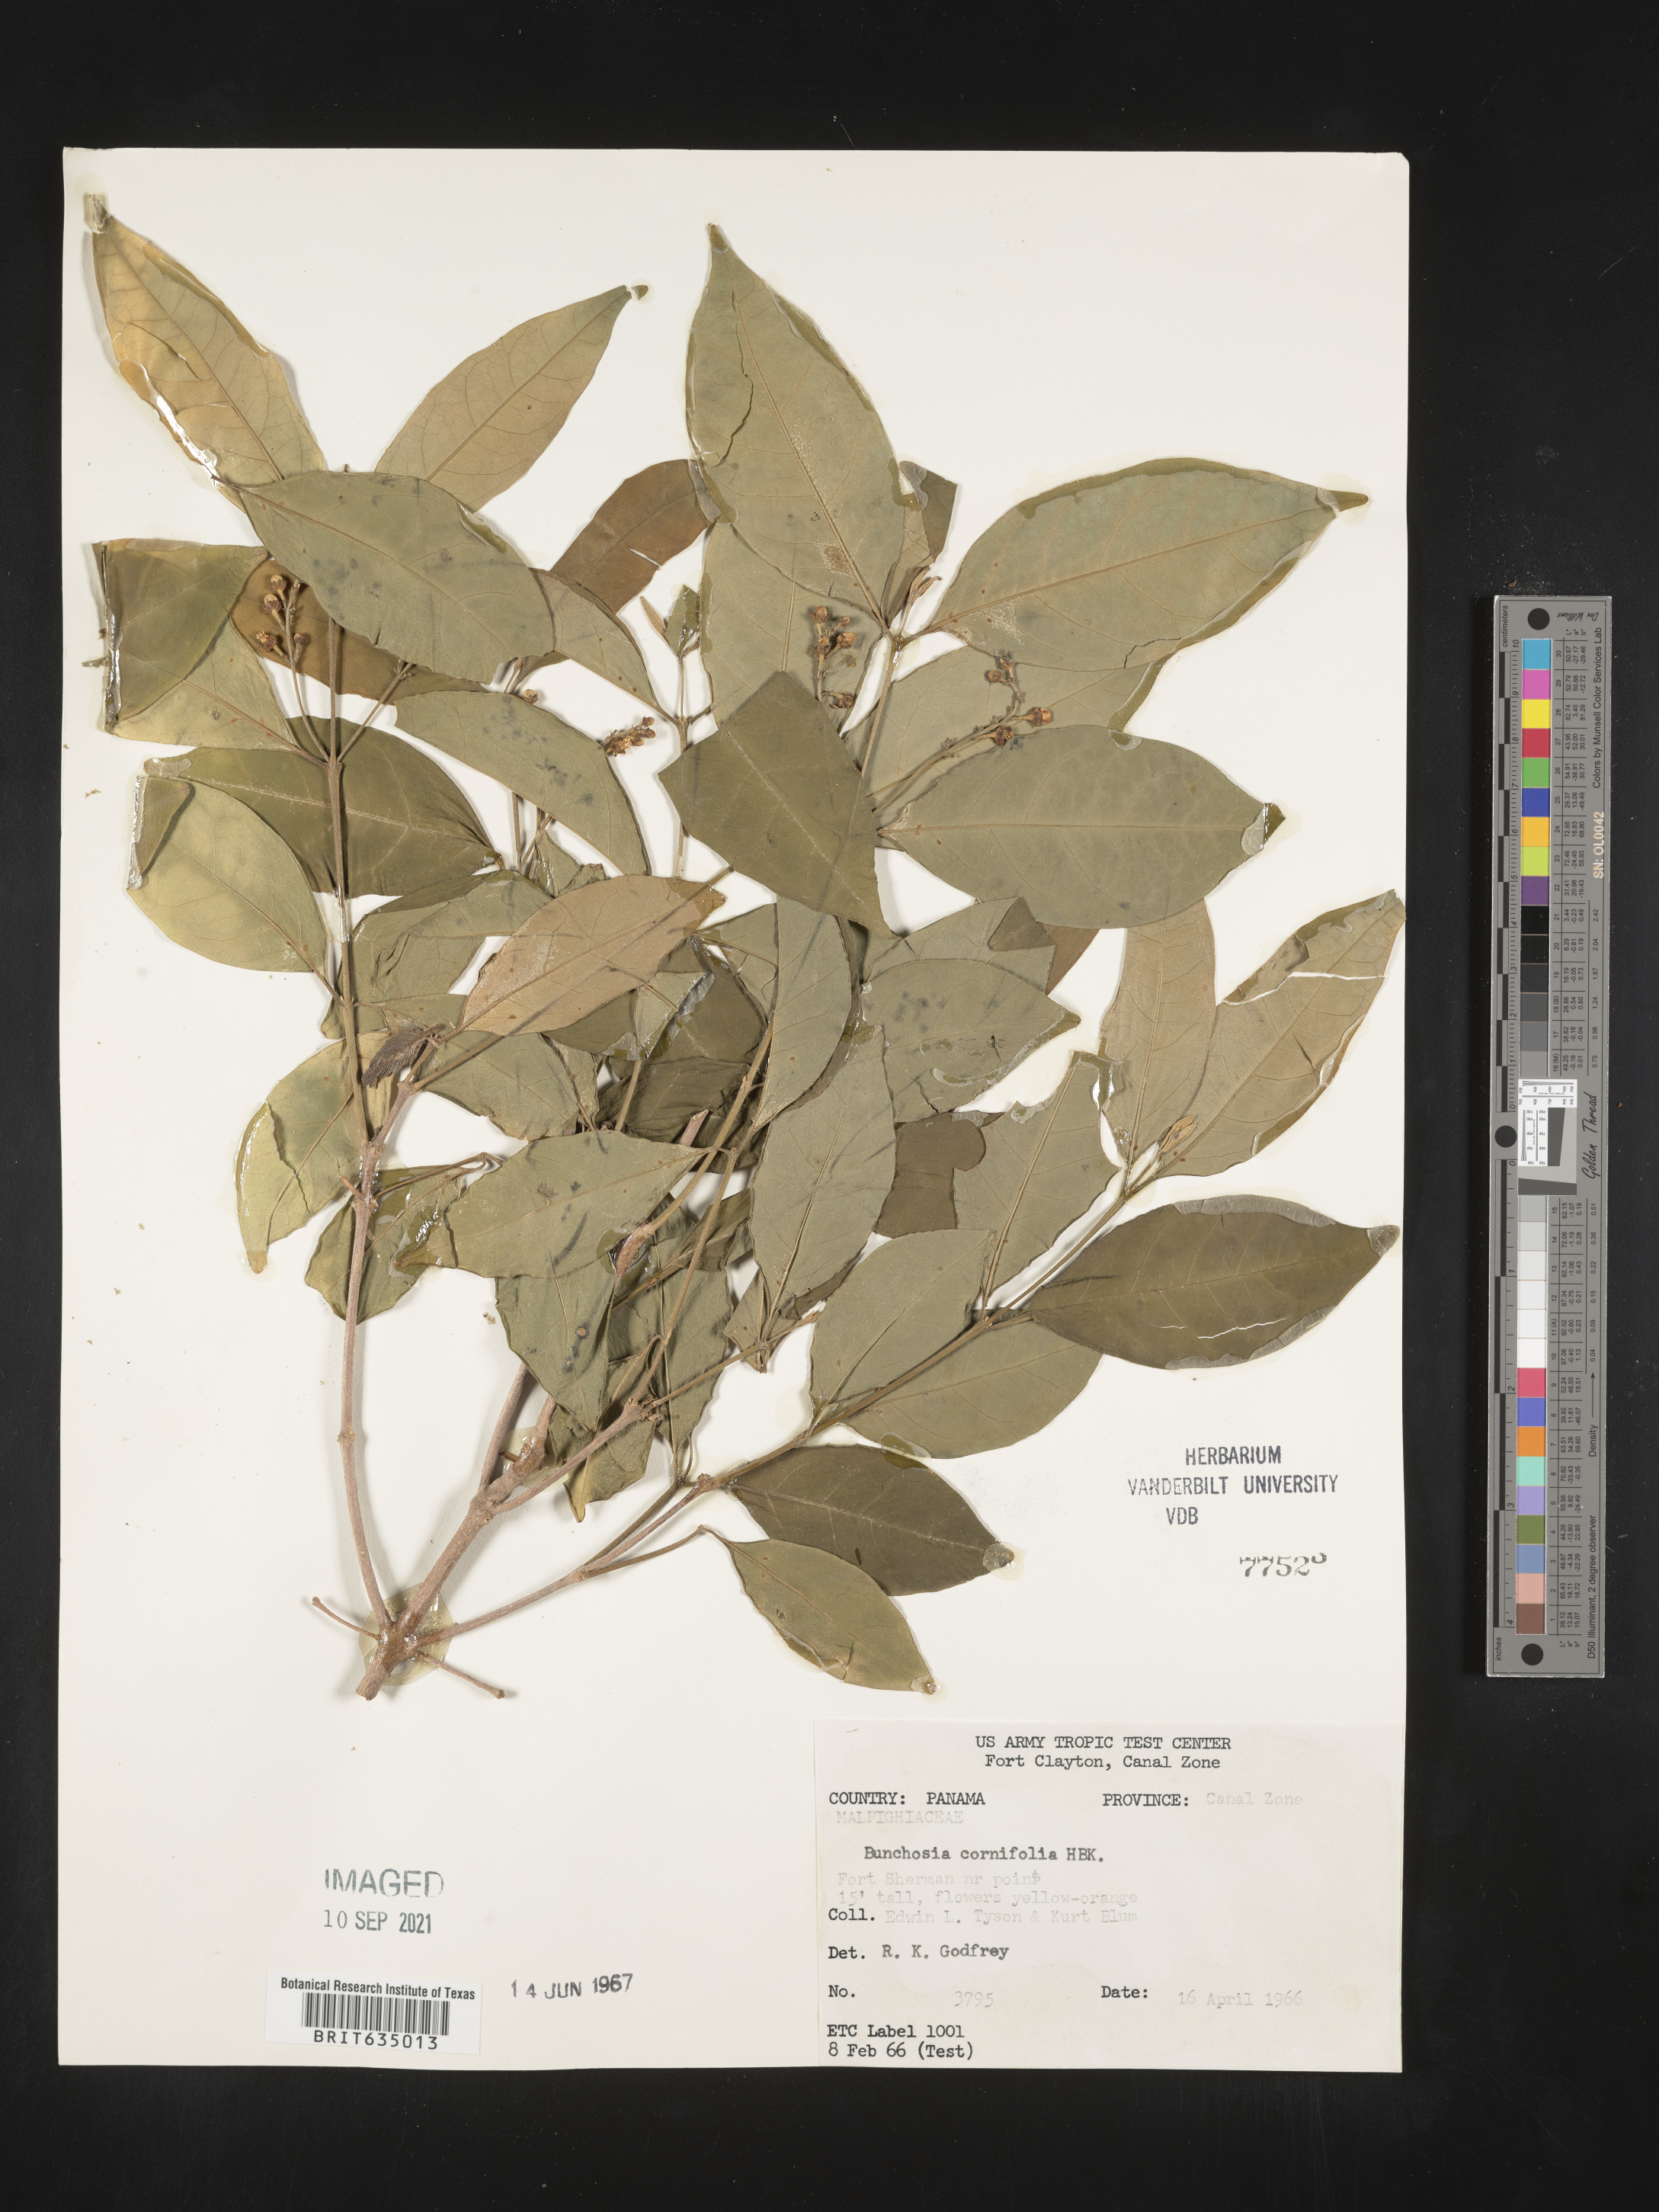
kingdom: Plantae
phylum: Tracheophyta
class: Magnoliopsida
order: Malpighiales
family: Malpighiaceae
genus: Bunchosia
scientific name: Bunchosia
